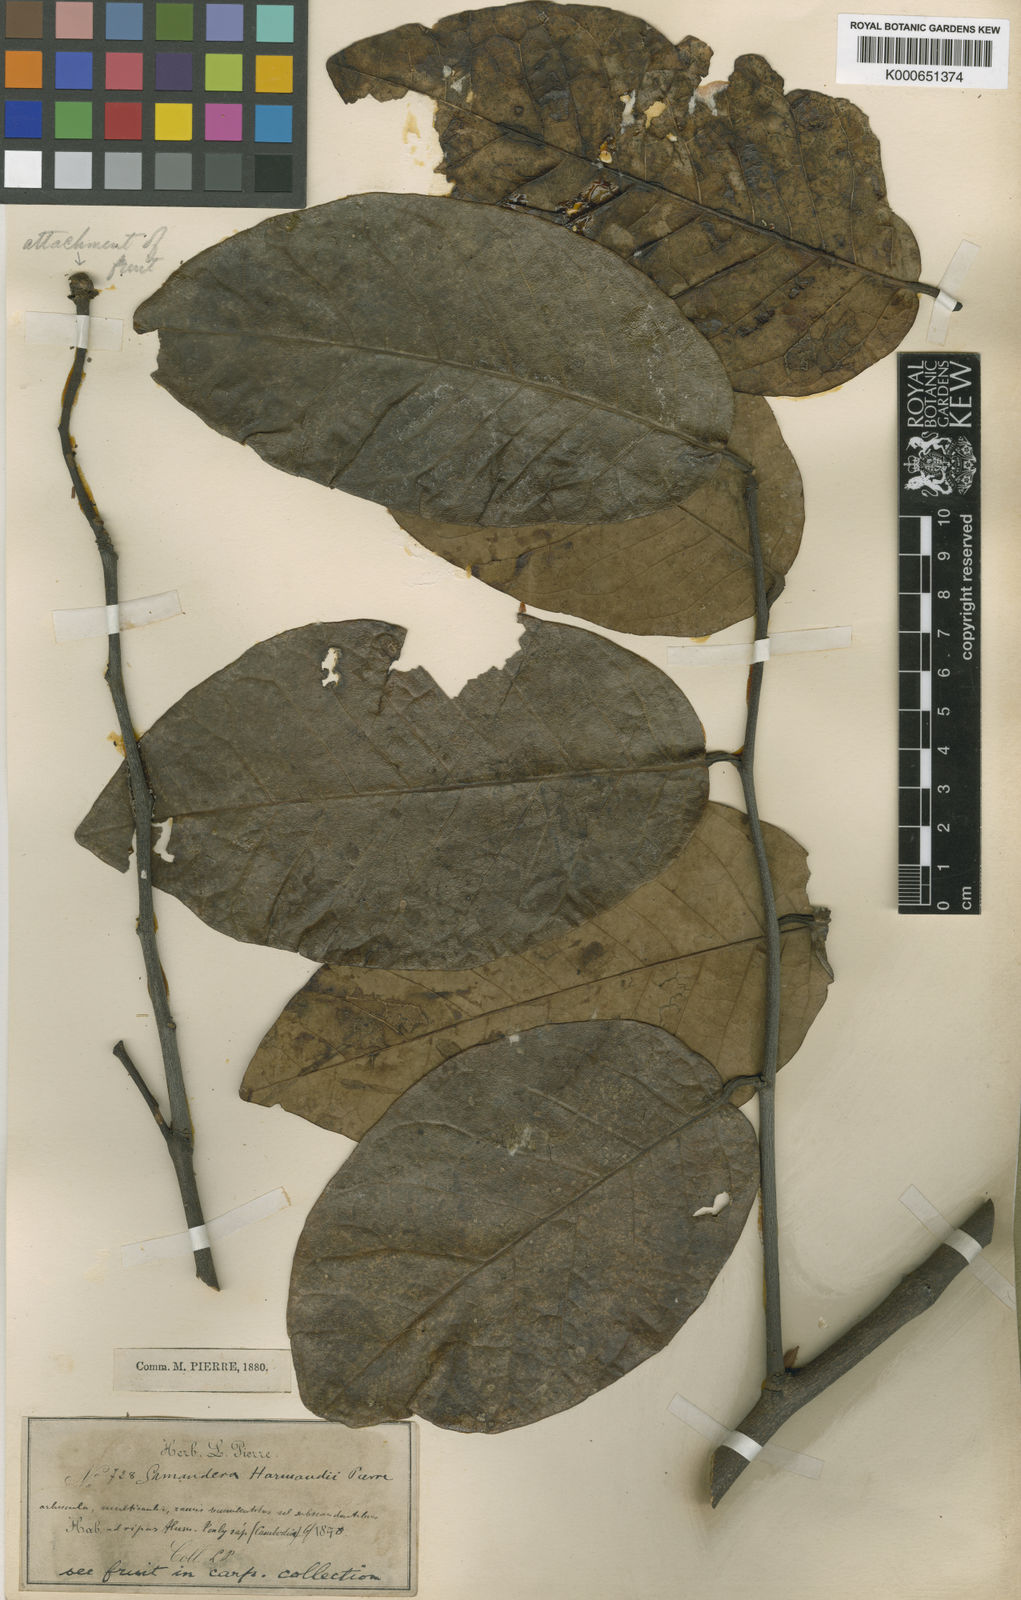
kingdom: Plantae
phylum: Tracheophyta
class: Magnoliopsida
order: Sapindales
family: Simaroubaceae
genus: Samadera
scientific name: Samadera harmandiana
